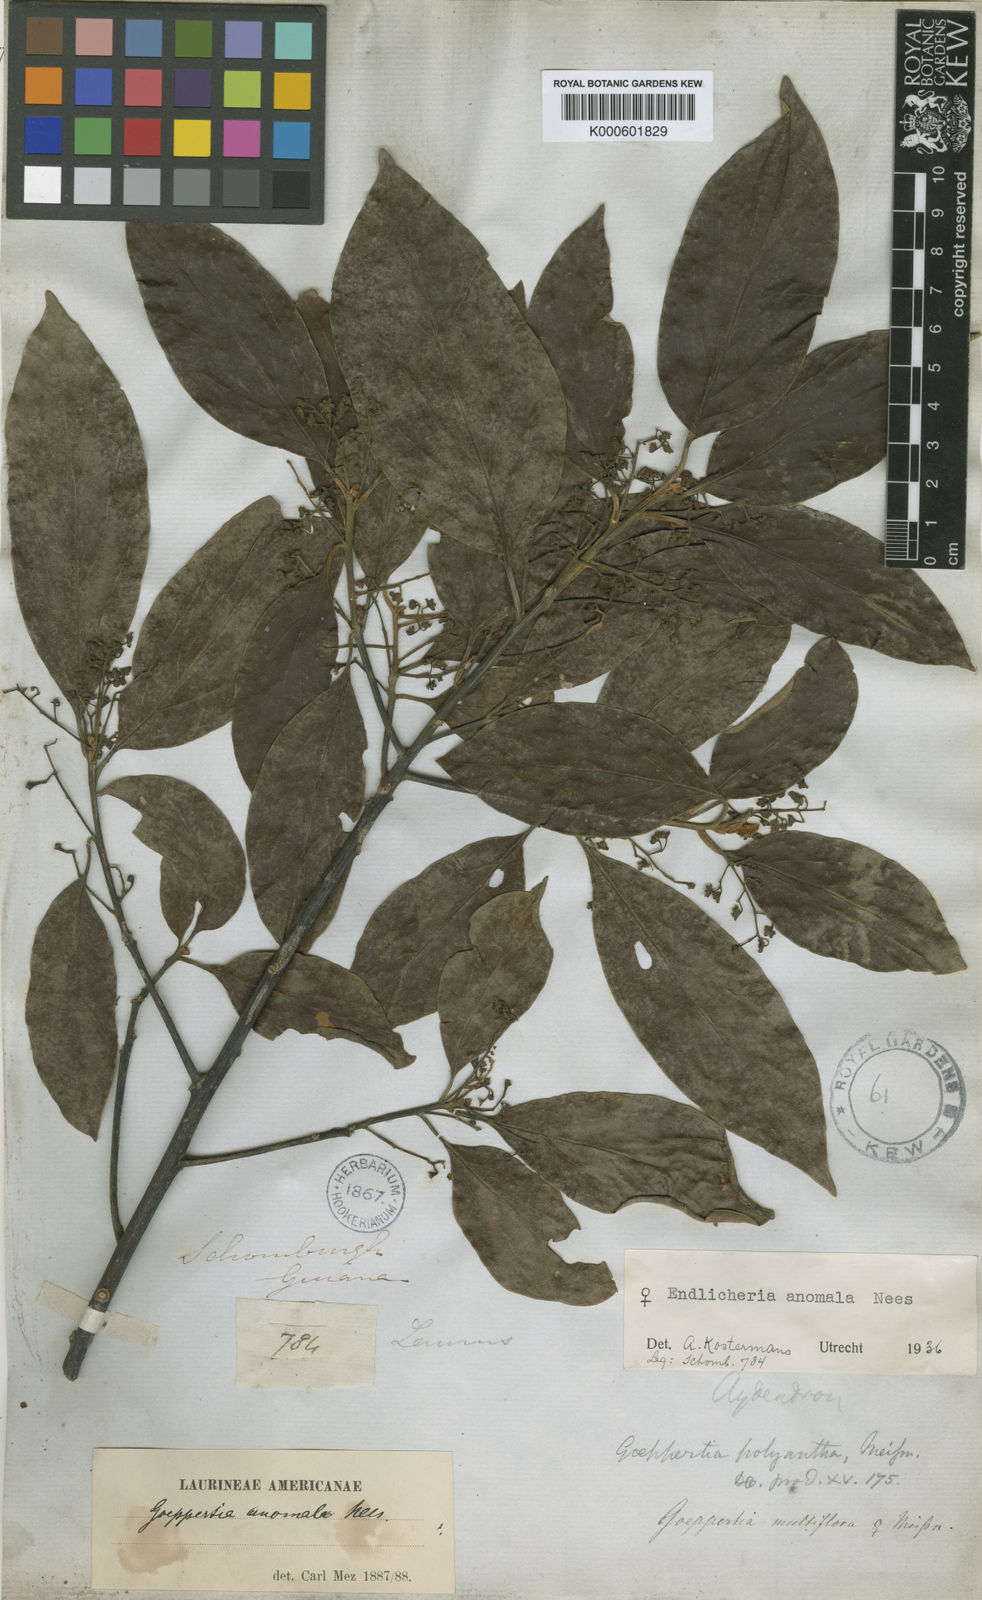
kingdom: Plantae
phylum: Tracheophyta
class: Magnoliopsida
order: Laurales
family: Lauraceae
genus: Endlicheria
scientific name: Endlicheria anomala
